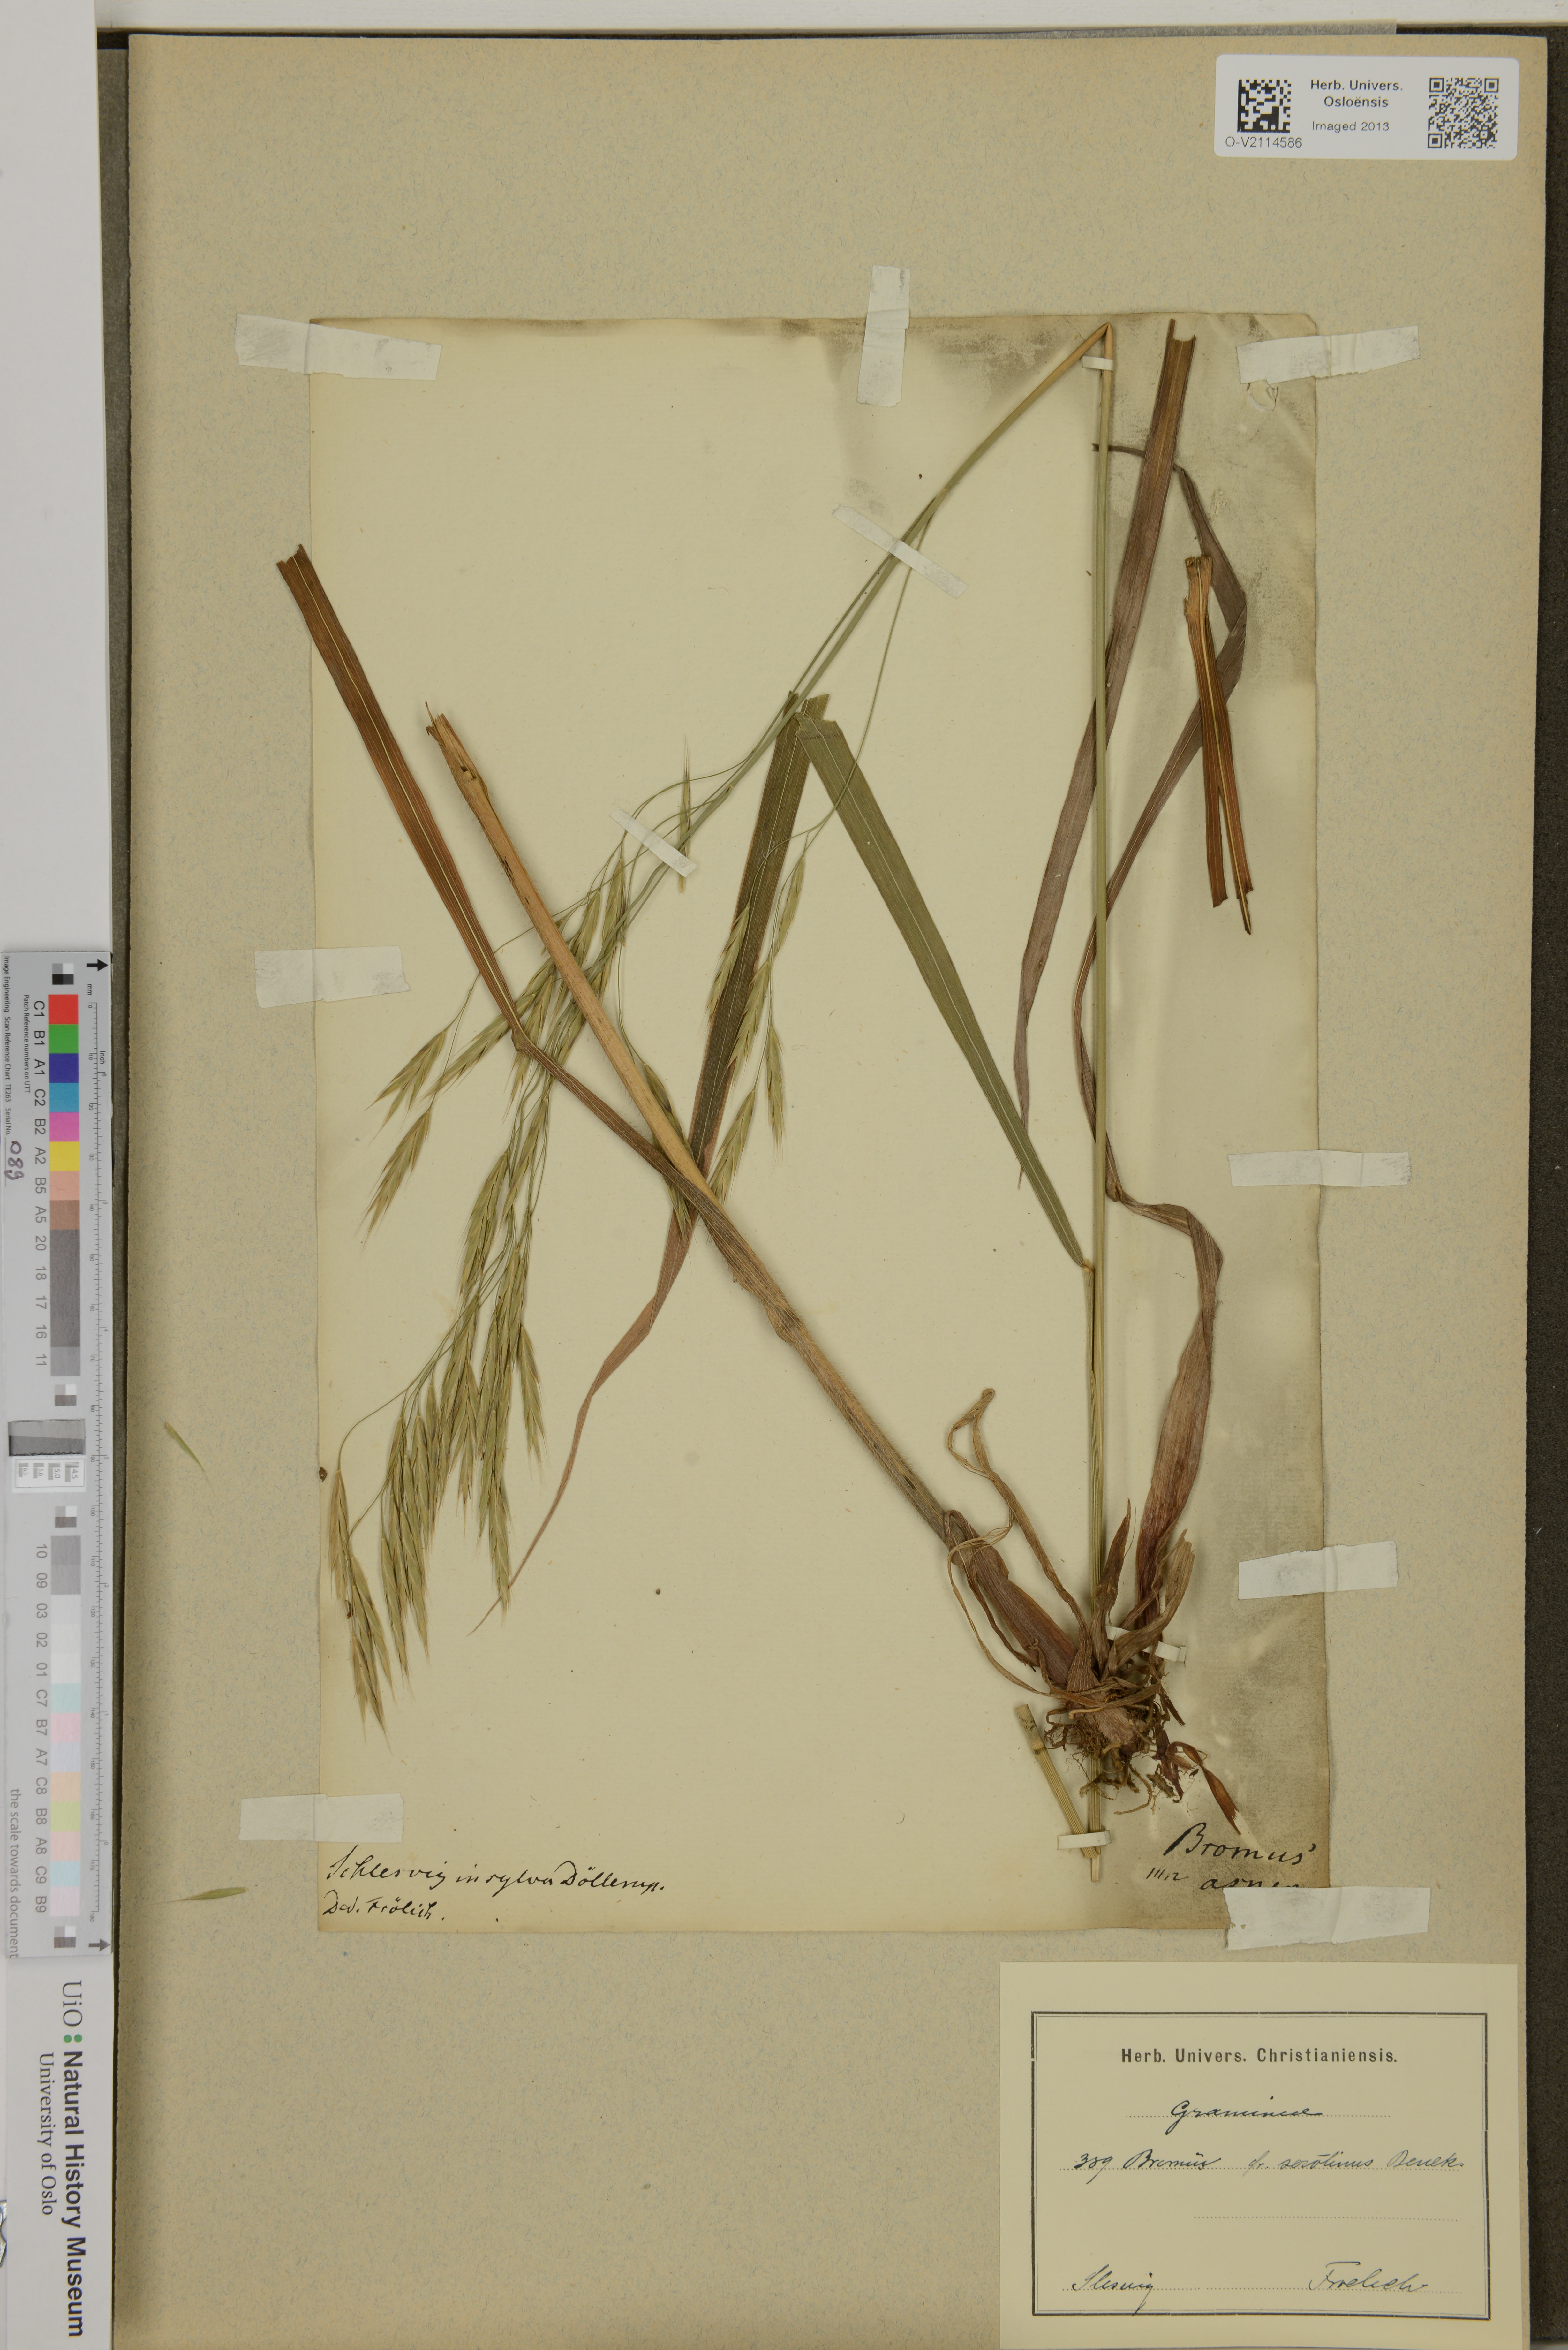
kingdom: Plantae
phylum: Tracheophyta
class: Liliopsida
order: Poales
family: Poaceae
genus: Bromus
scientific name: Bromus ramosus
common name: Hairy brome
